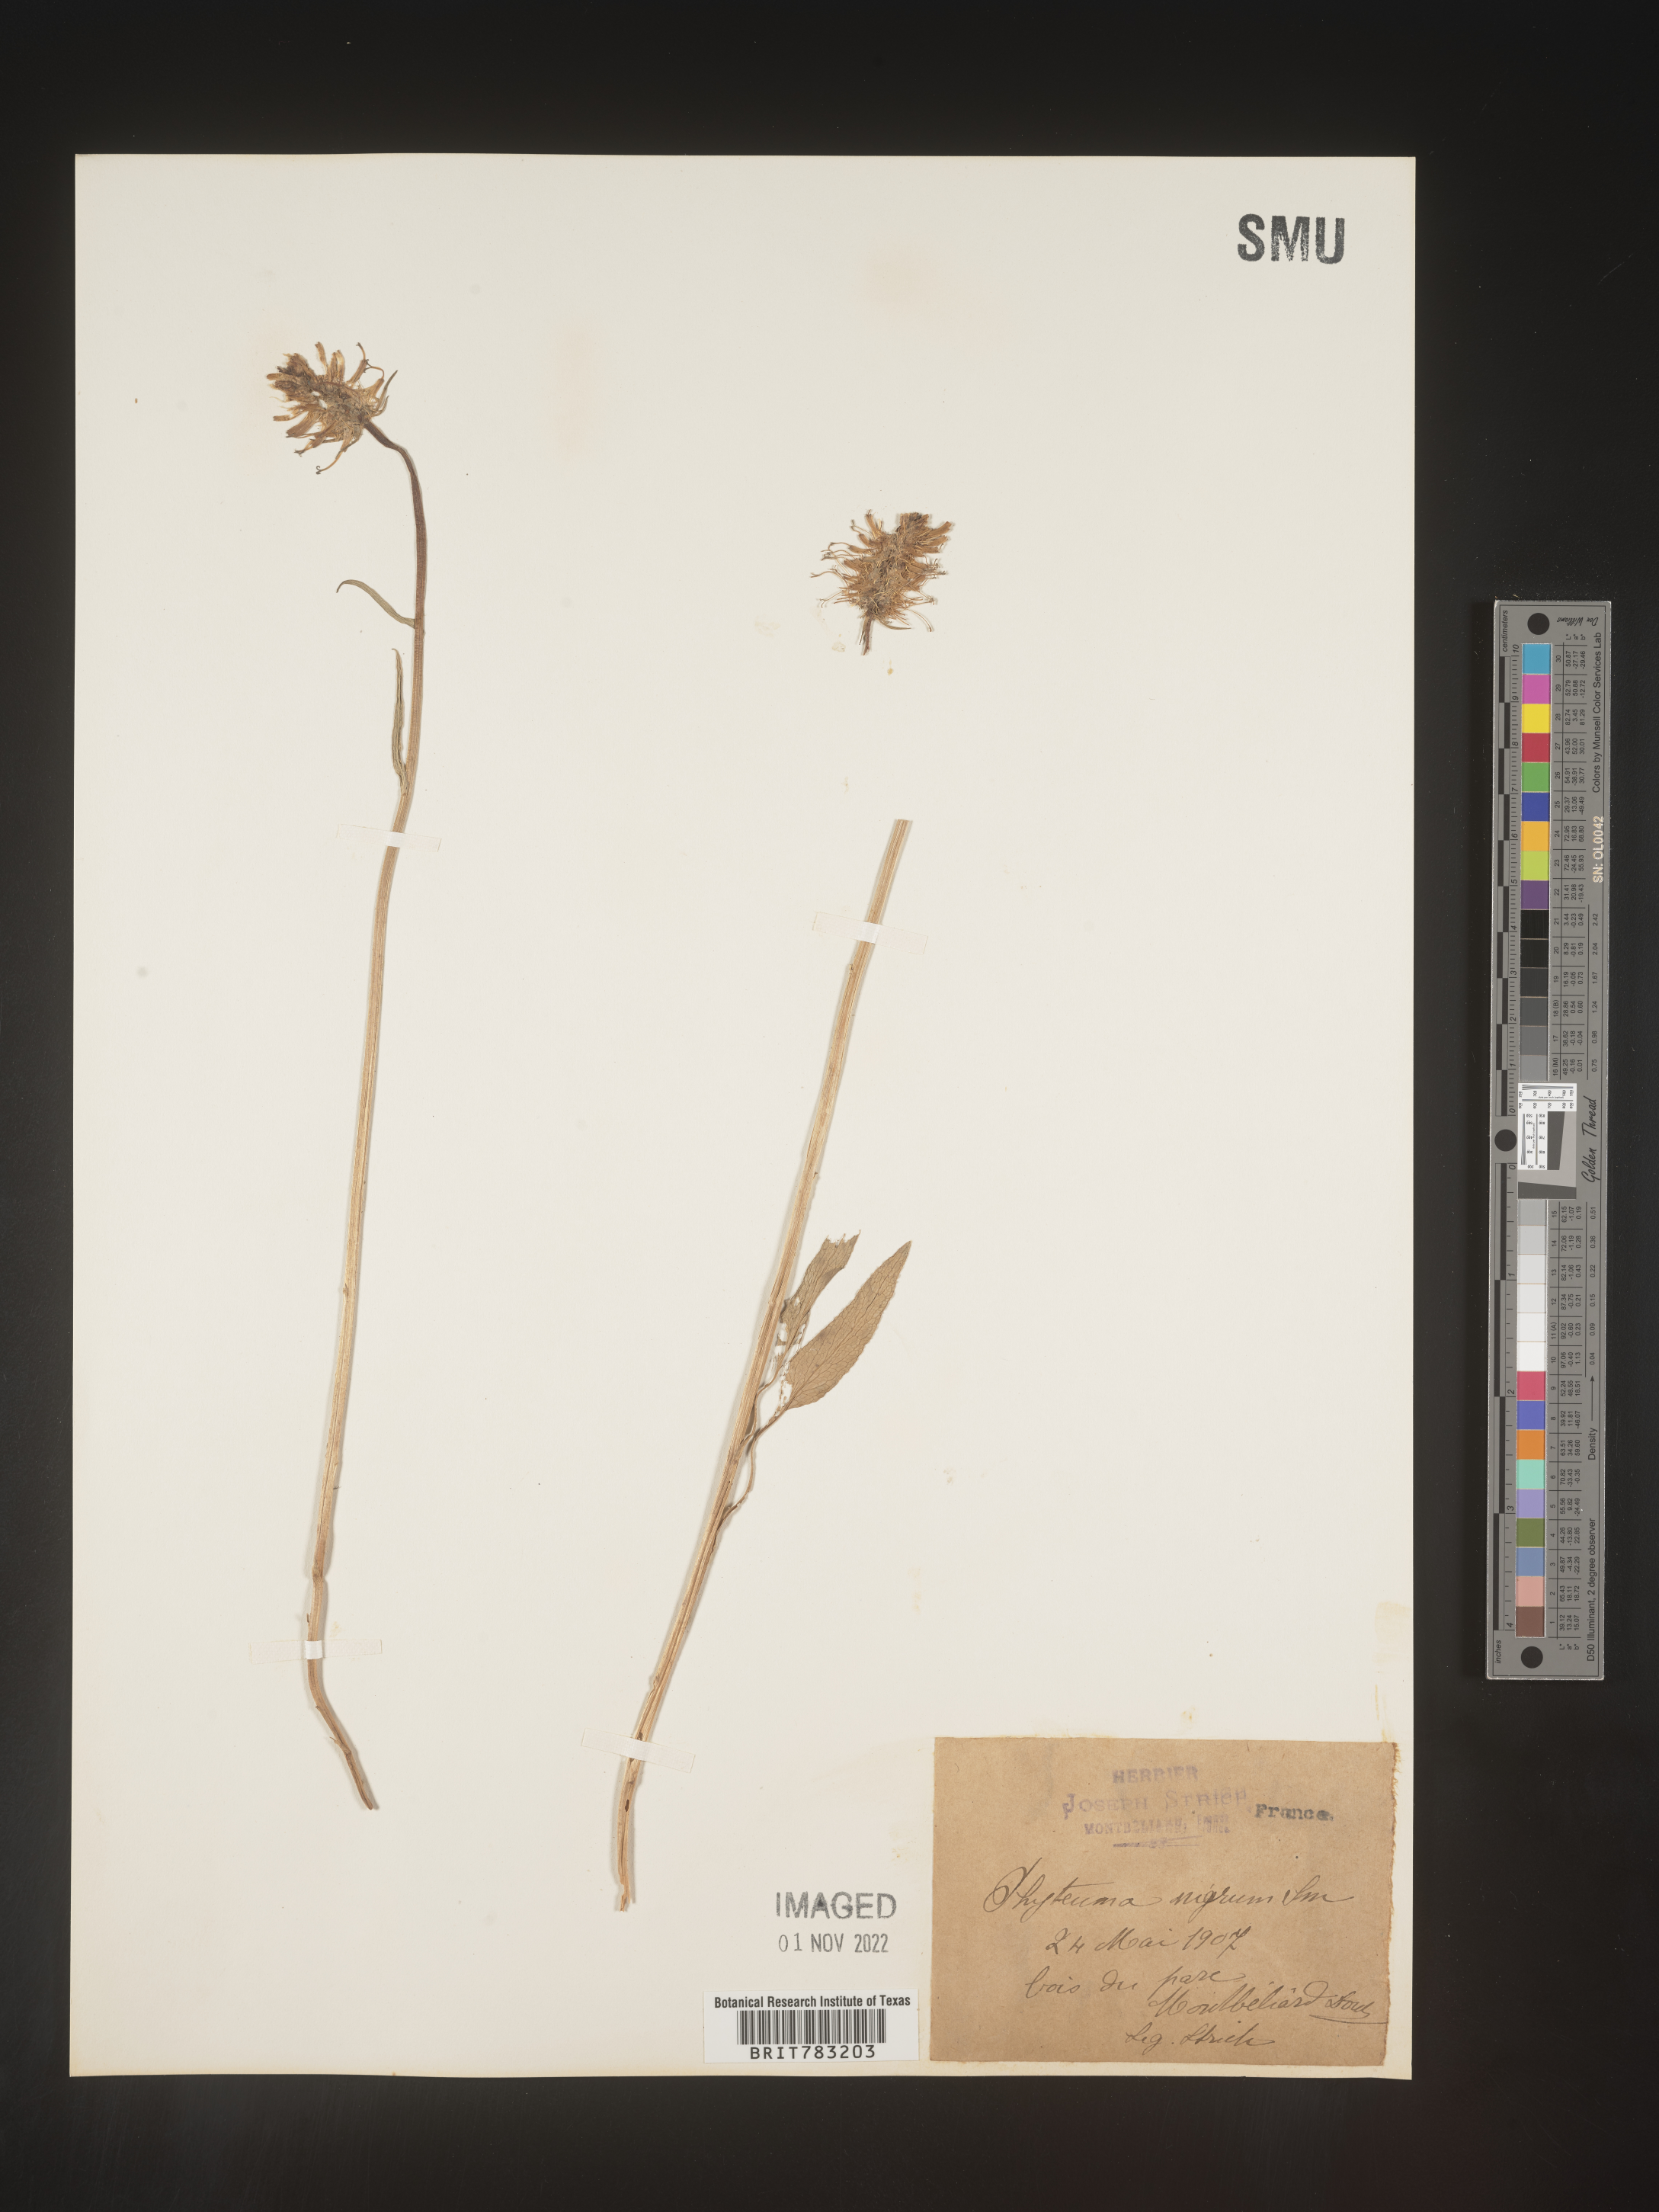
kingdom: Plantae
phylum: Tracheophyta
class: Magnoliopsida
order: Asterales
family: Campanulaceae
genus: Phyteuma
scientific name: Phyteuma
